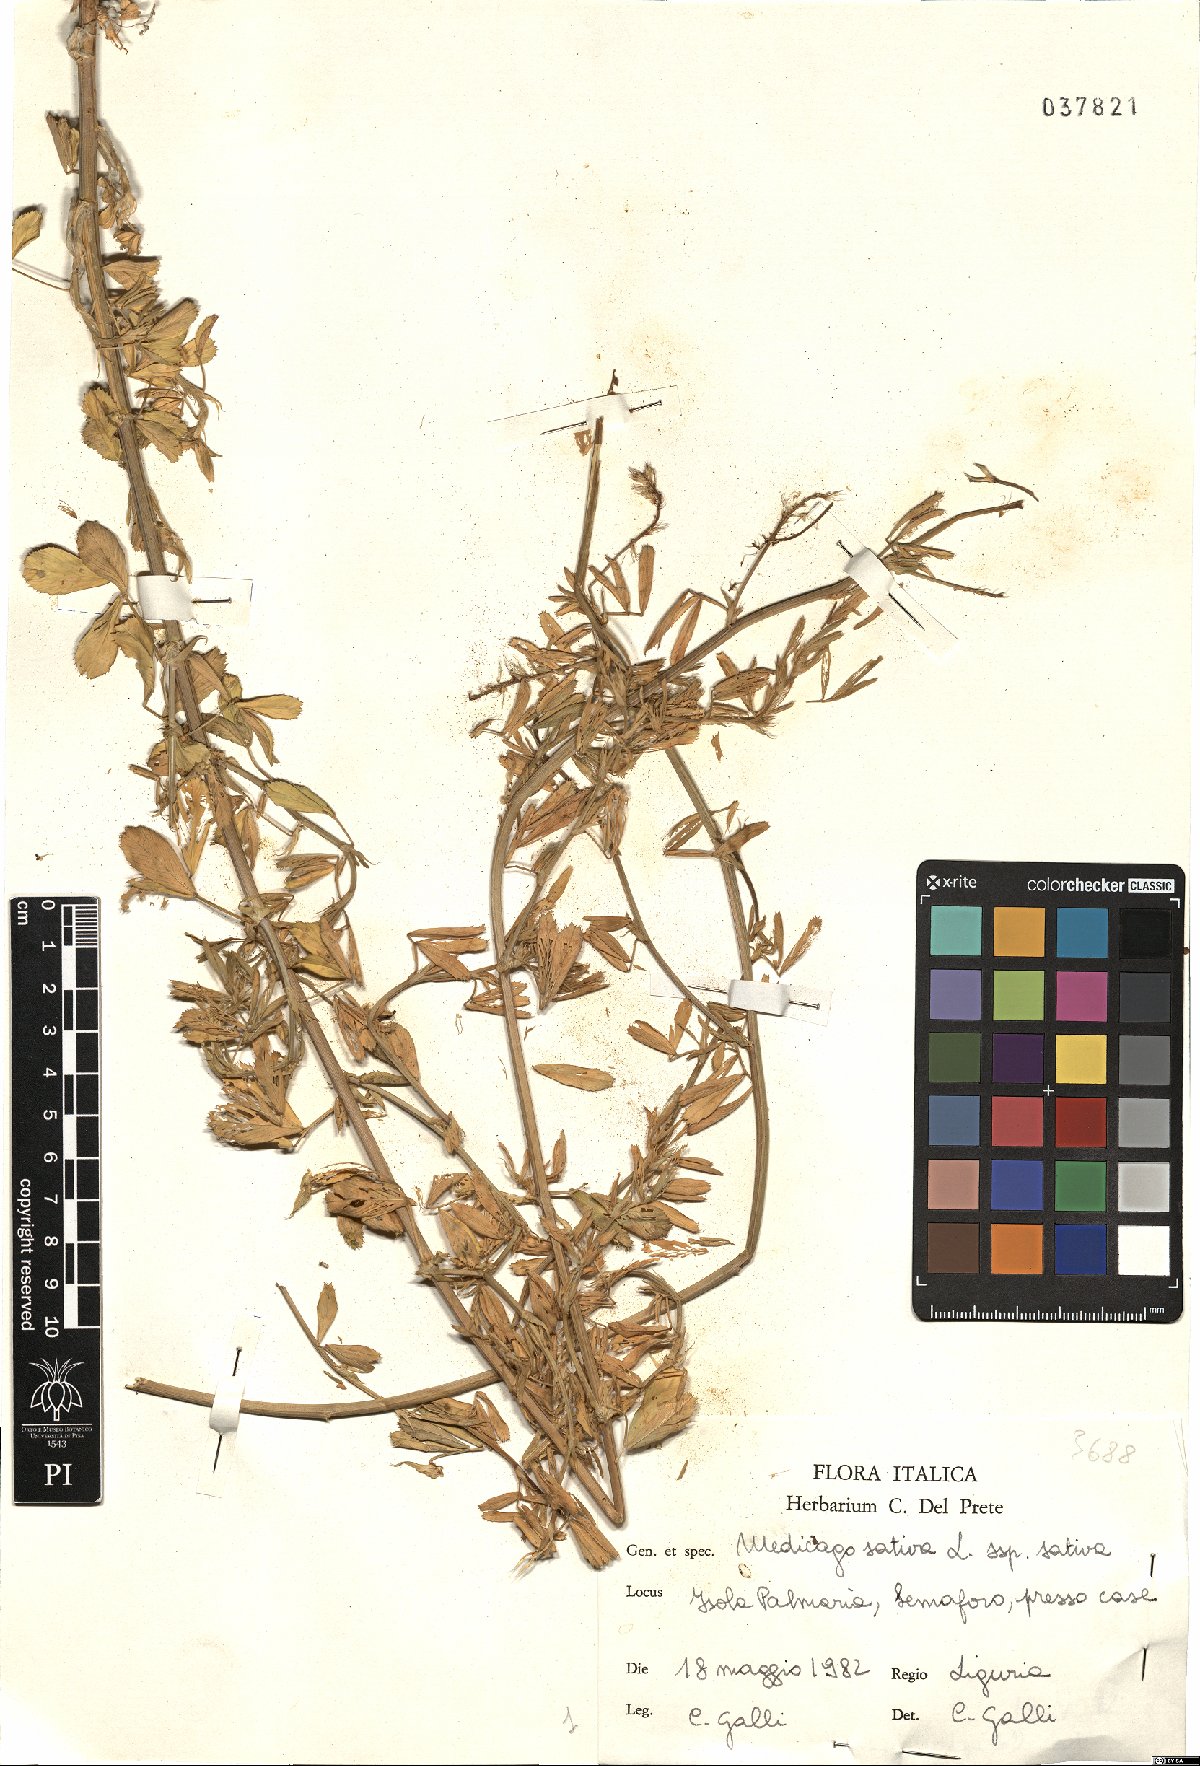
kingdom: Plantae
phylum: Tracheophyta
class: Magnoliopsida
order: Fabales
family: Fabaceae
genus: Medicago
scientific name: Medicago sativa
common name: Alfalfa
